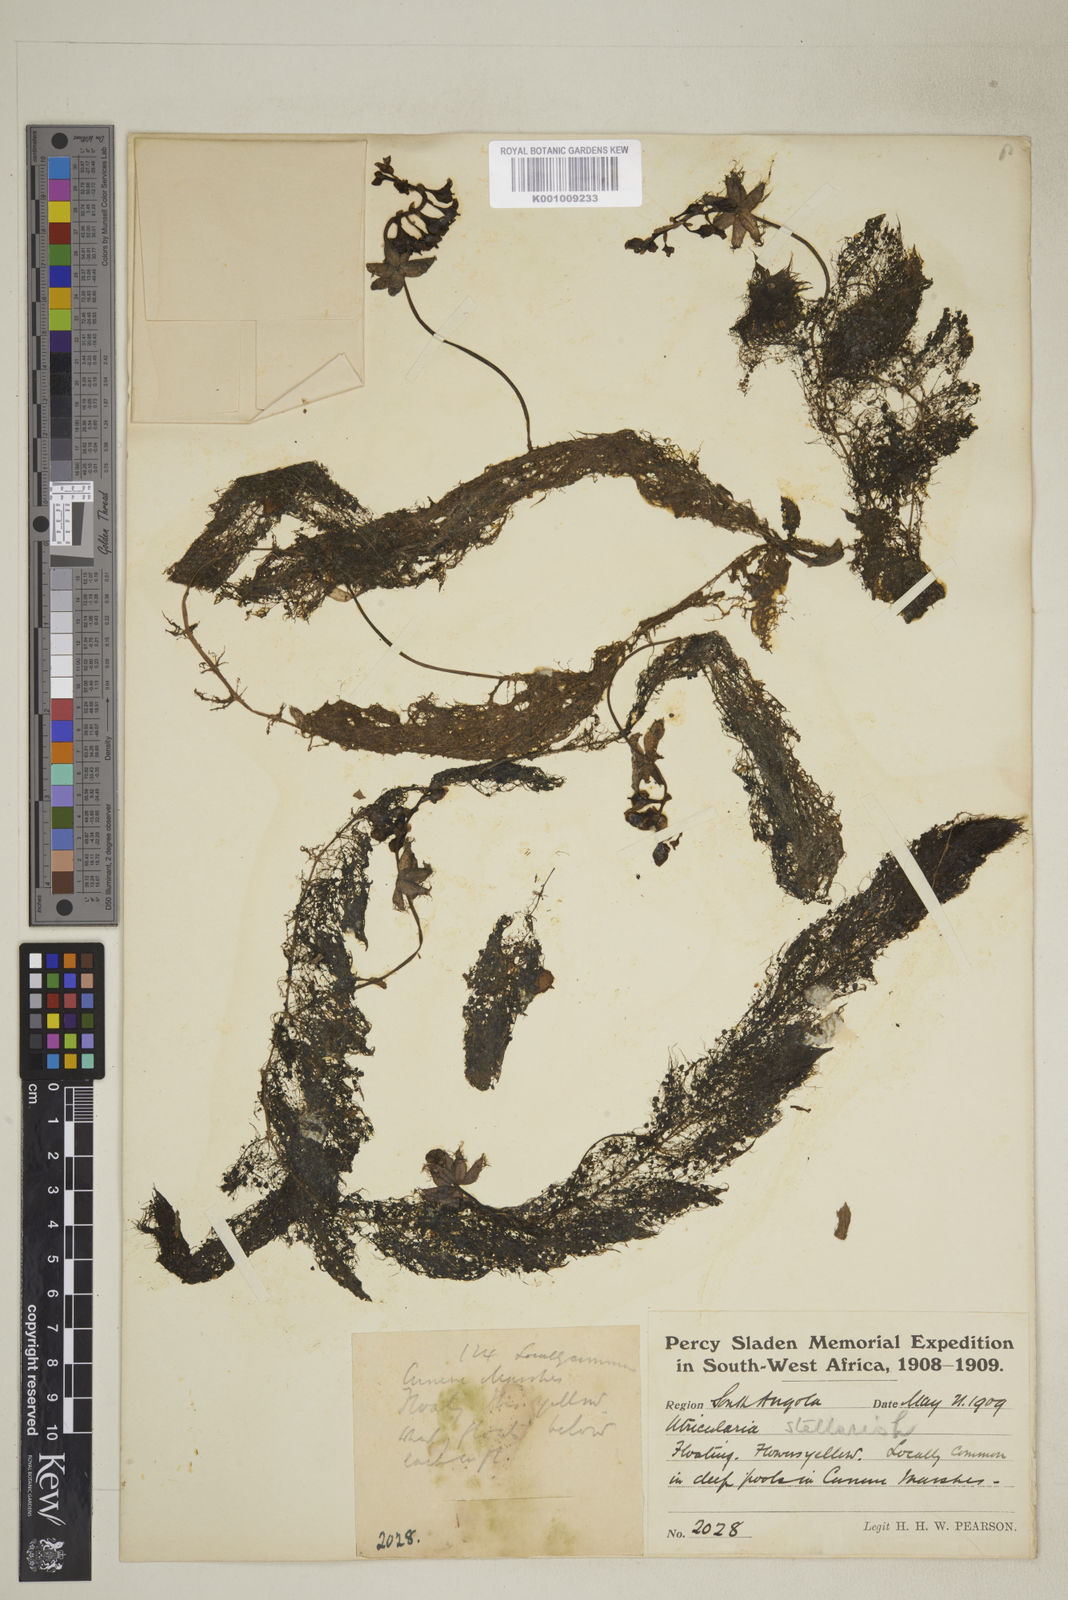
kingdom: Plantae
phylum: Tracheophyta
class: Magnoliopsida
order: Lamiales
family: Lentibulariaceae
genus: Utricularia
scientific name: Utricularia inflexa
